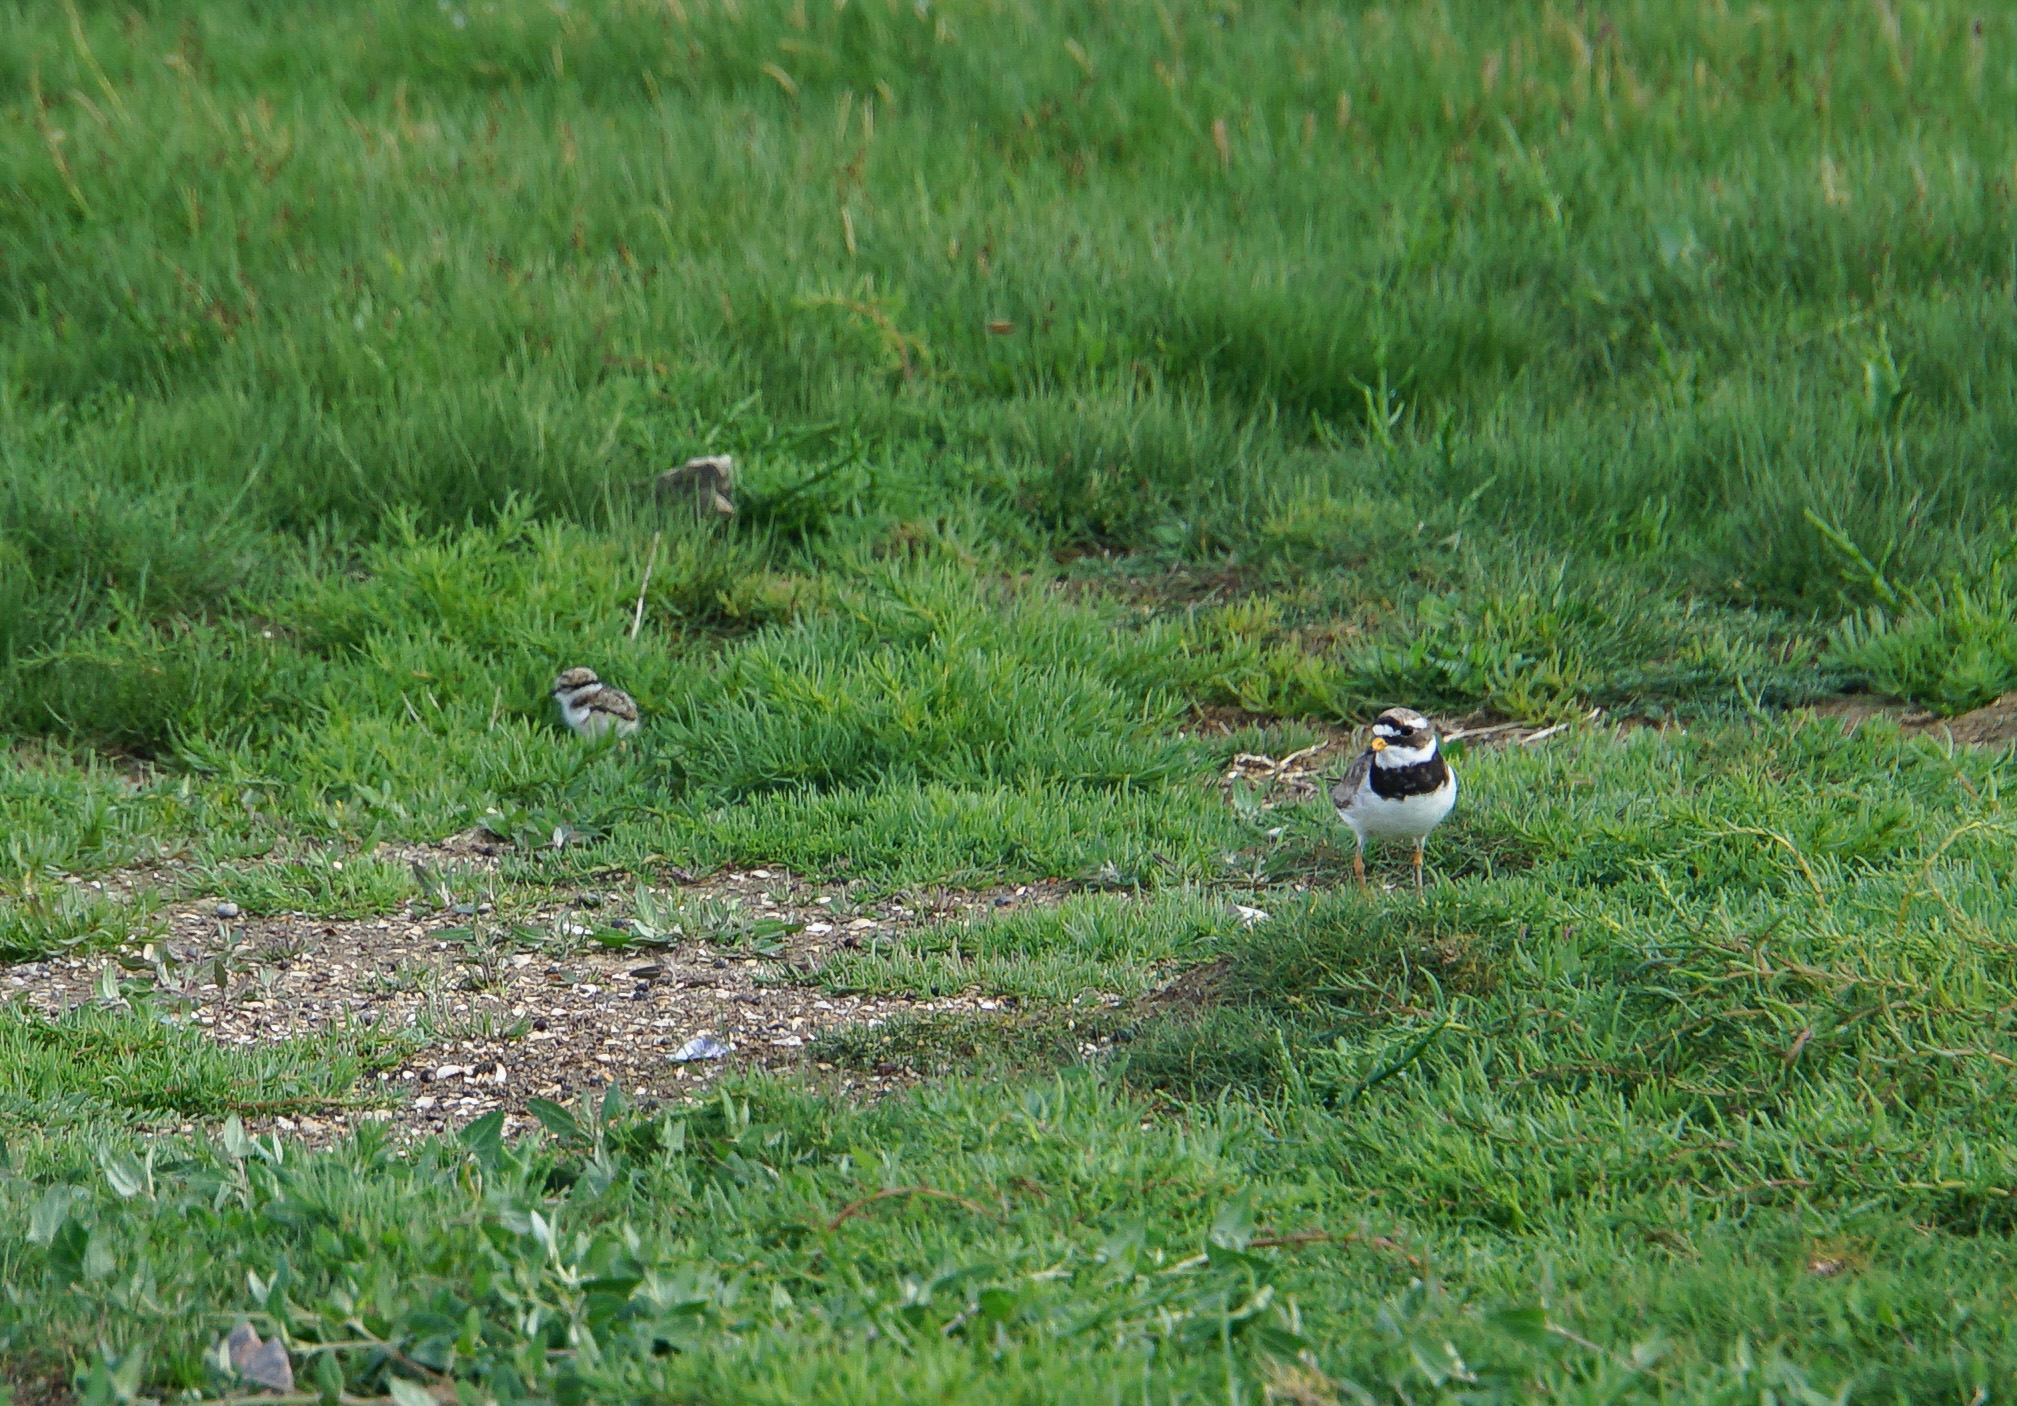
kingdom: Animalia
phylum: Chordata
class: Aves
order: Charadriiformes
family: Charadriidae
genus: Charadrius
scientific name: Charadrius hiaticula
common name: Common ringed plover
